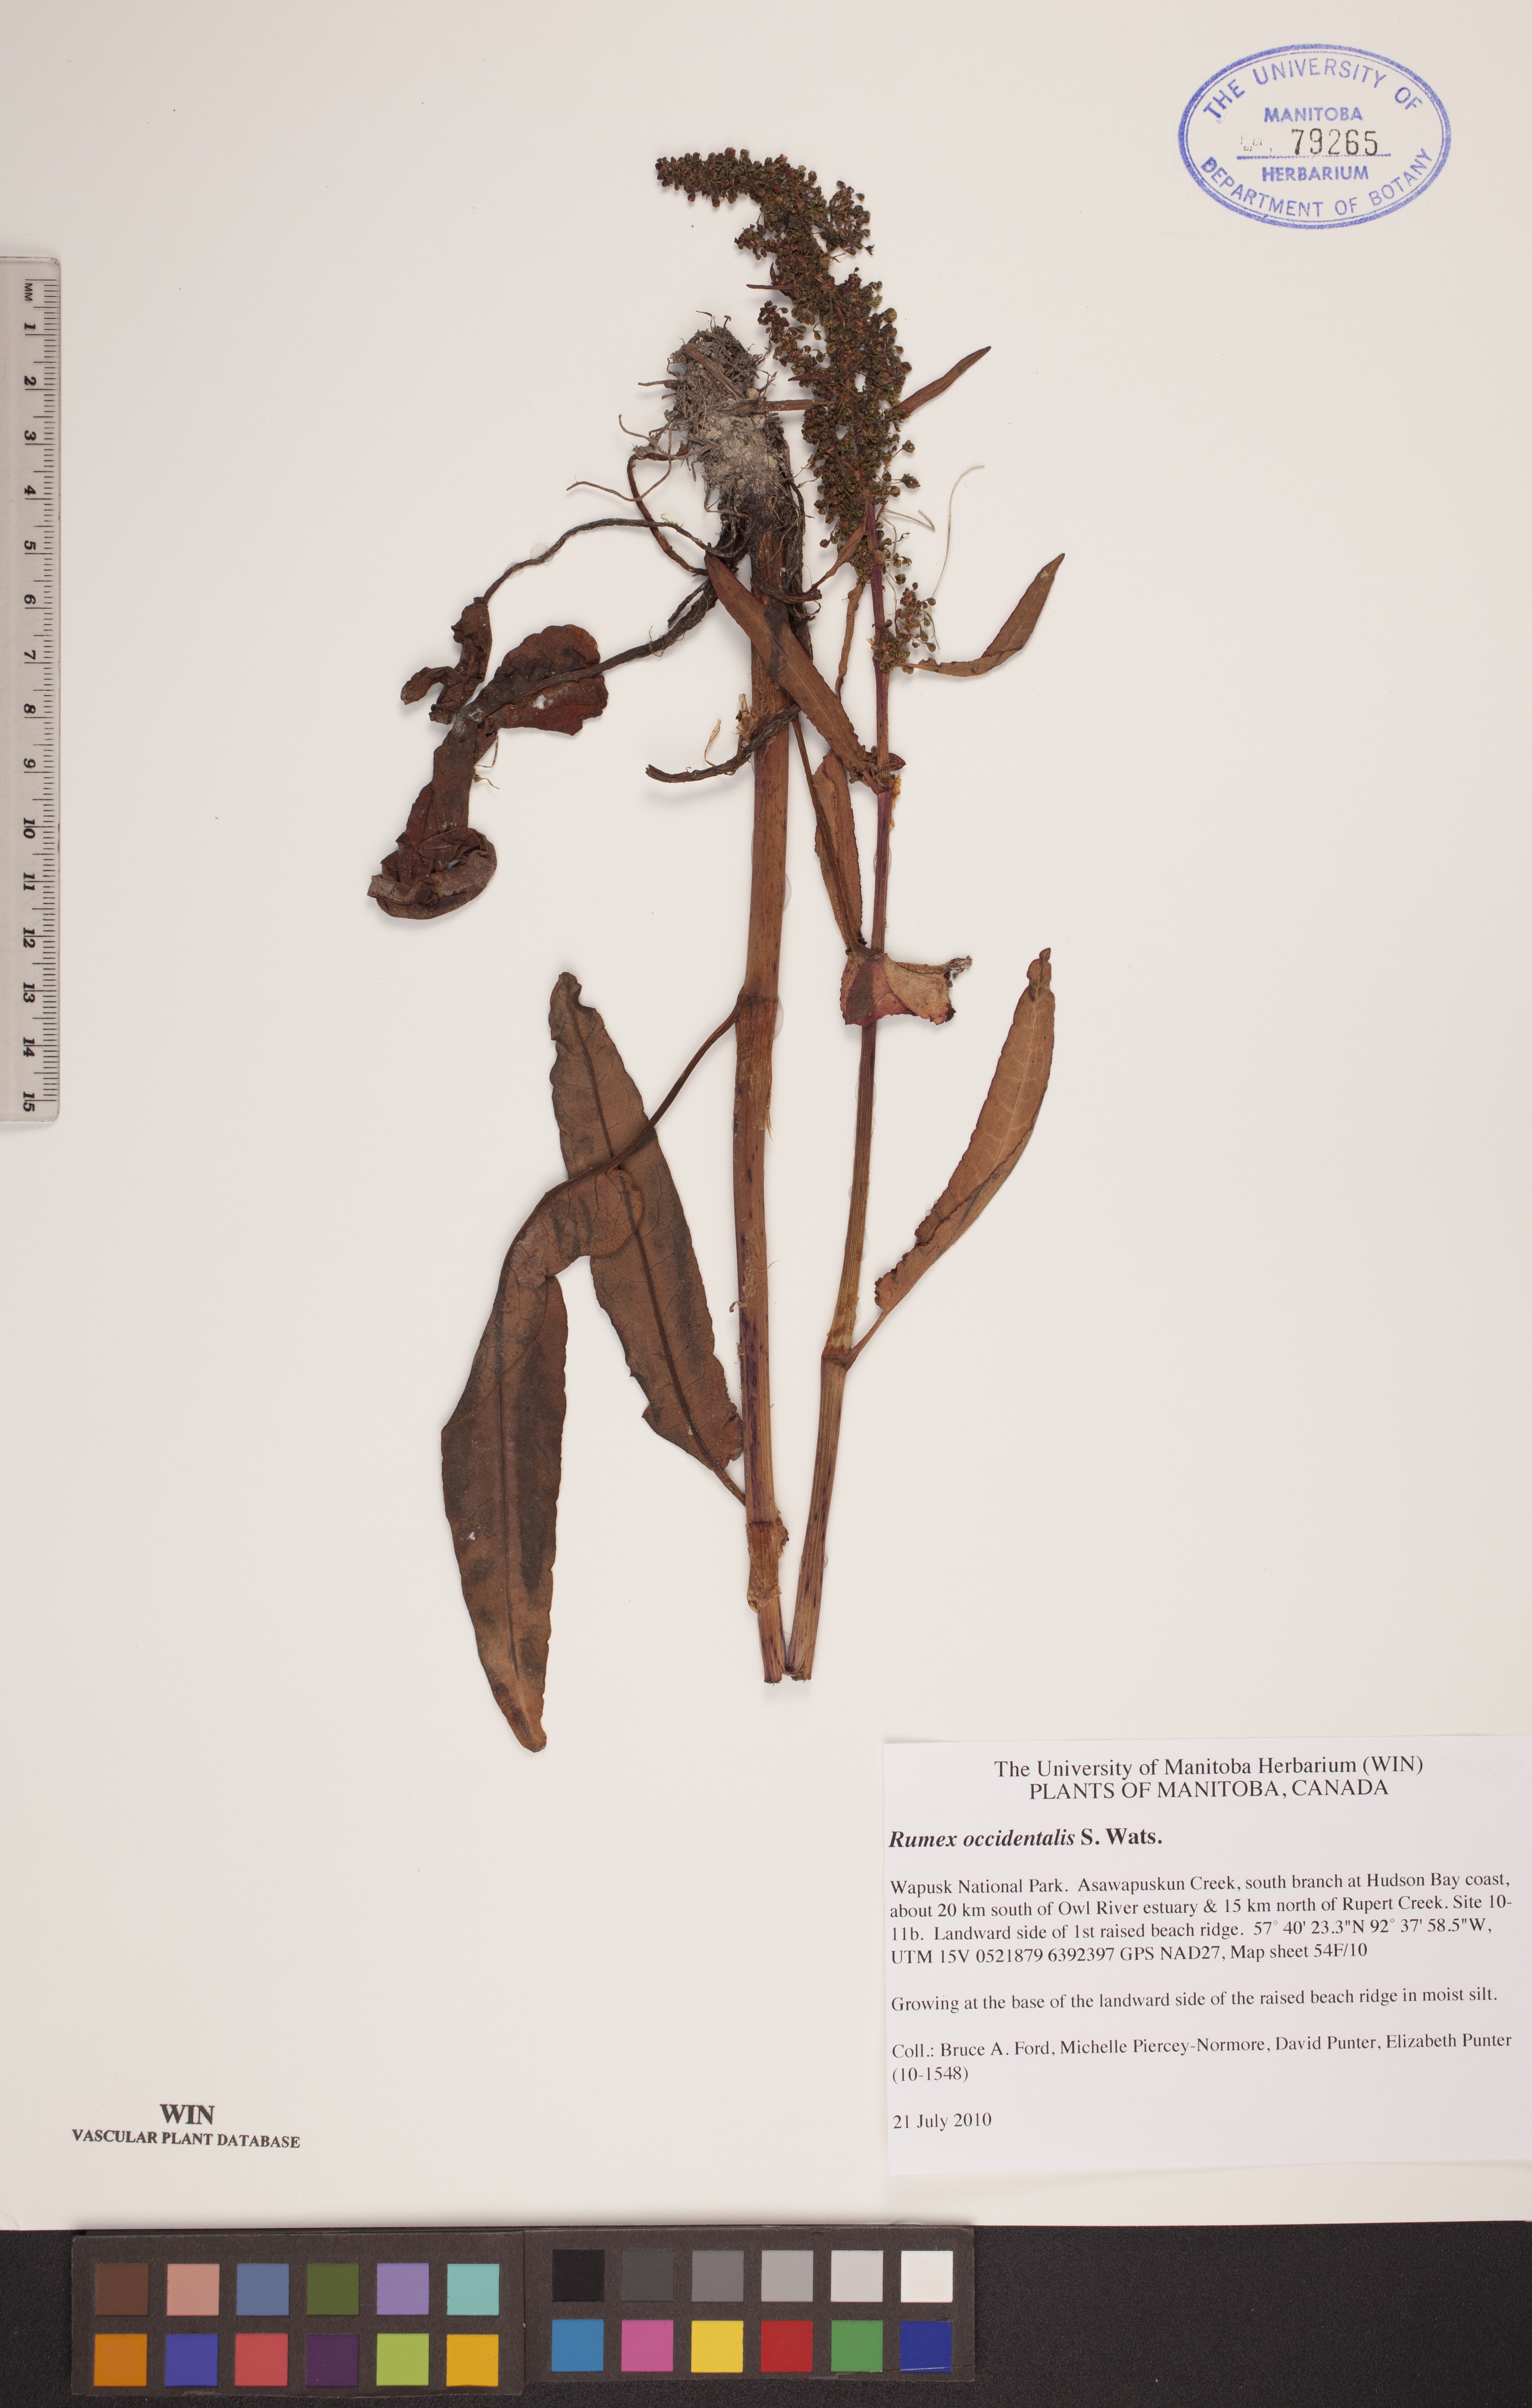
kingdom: Plantae
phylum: Tracheophyta
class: Magnoliopsida
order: Caryophyllales
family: Polygonaceae
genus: Rumex
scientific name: Rumex occidentalis
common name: Western dock
